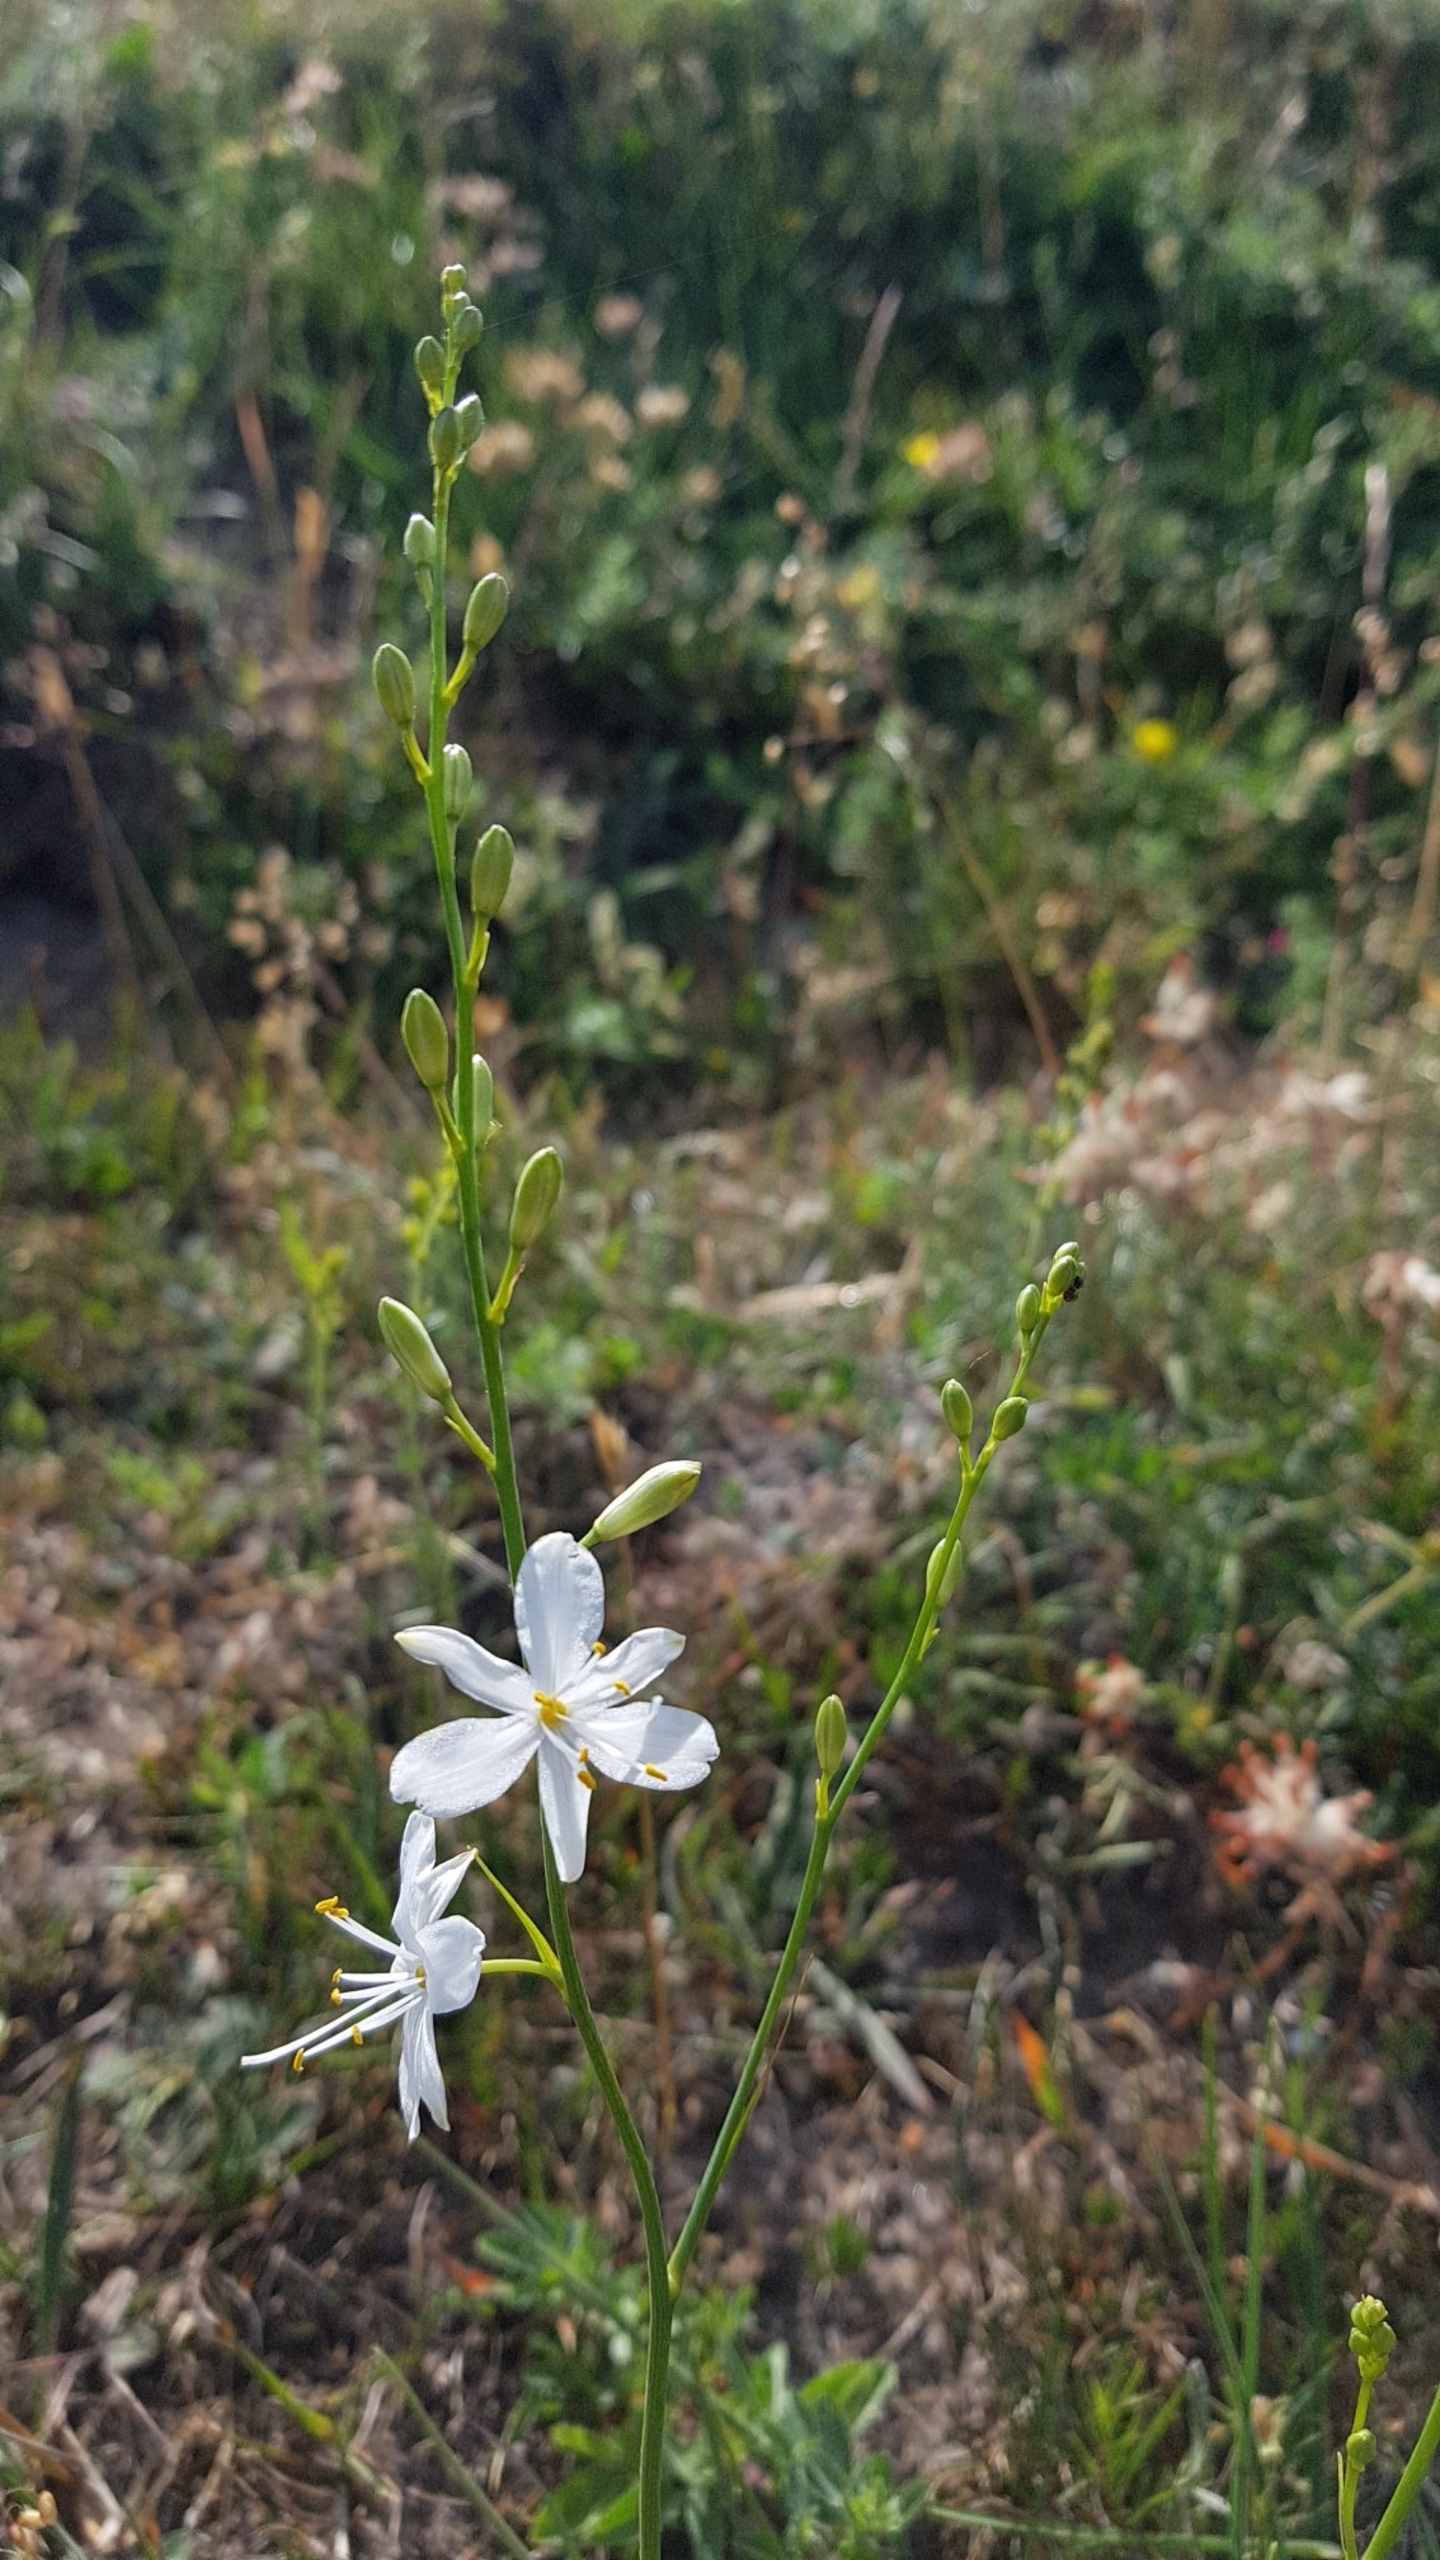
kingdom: Plantae
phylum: Tracheophyta
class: Liliopsida
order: Asparagales
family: Asparagaceae
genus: Anthericum
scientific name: Anthericum ramosum
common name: Grenet edderkopurt
